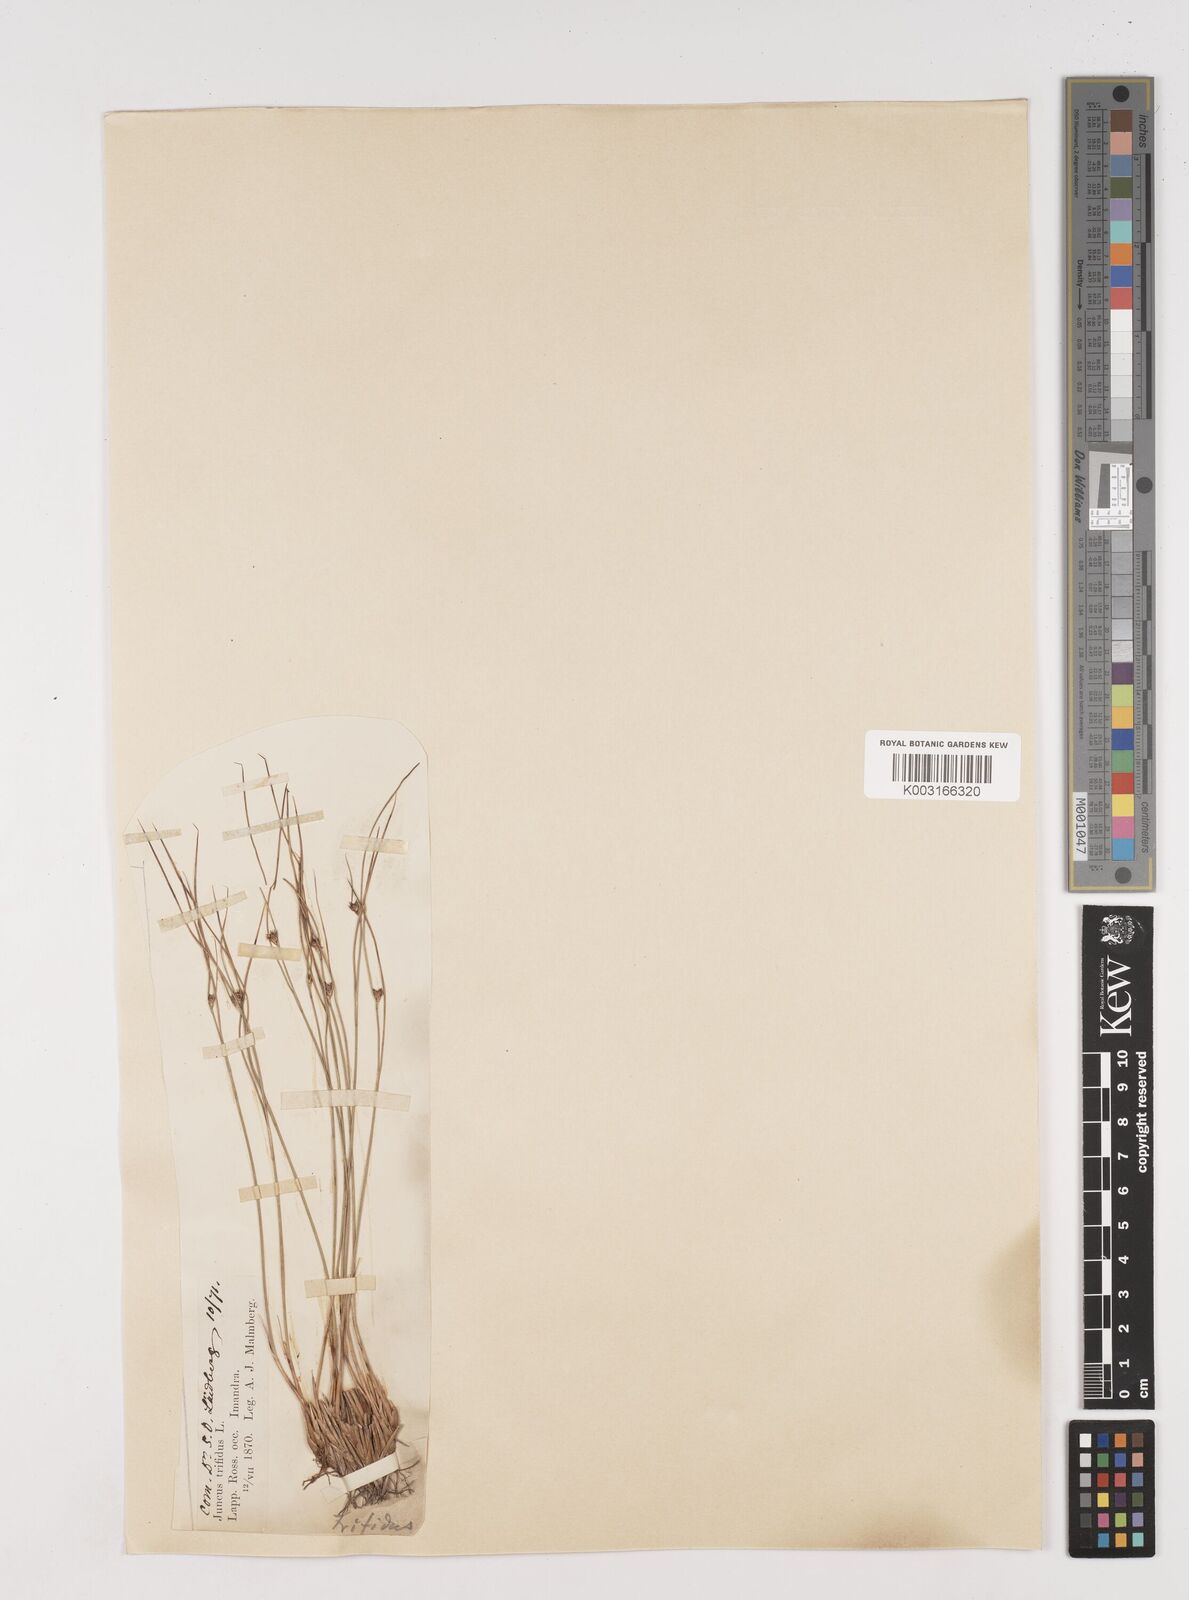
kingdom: Plantae
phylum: Tracheophyta
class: Liliopsida
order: Poales
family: Juncaceae
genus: Oreojuncus
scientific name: Oreojuncus trifidus
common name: Highland rush
